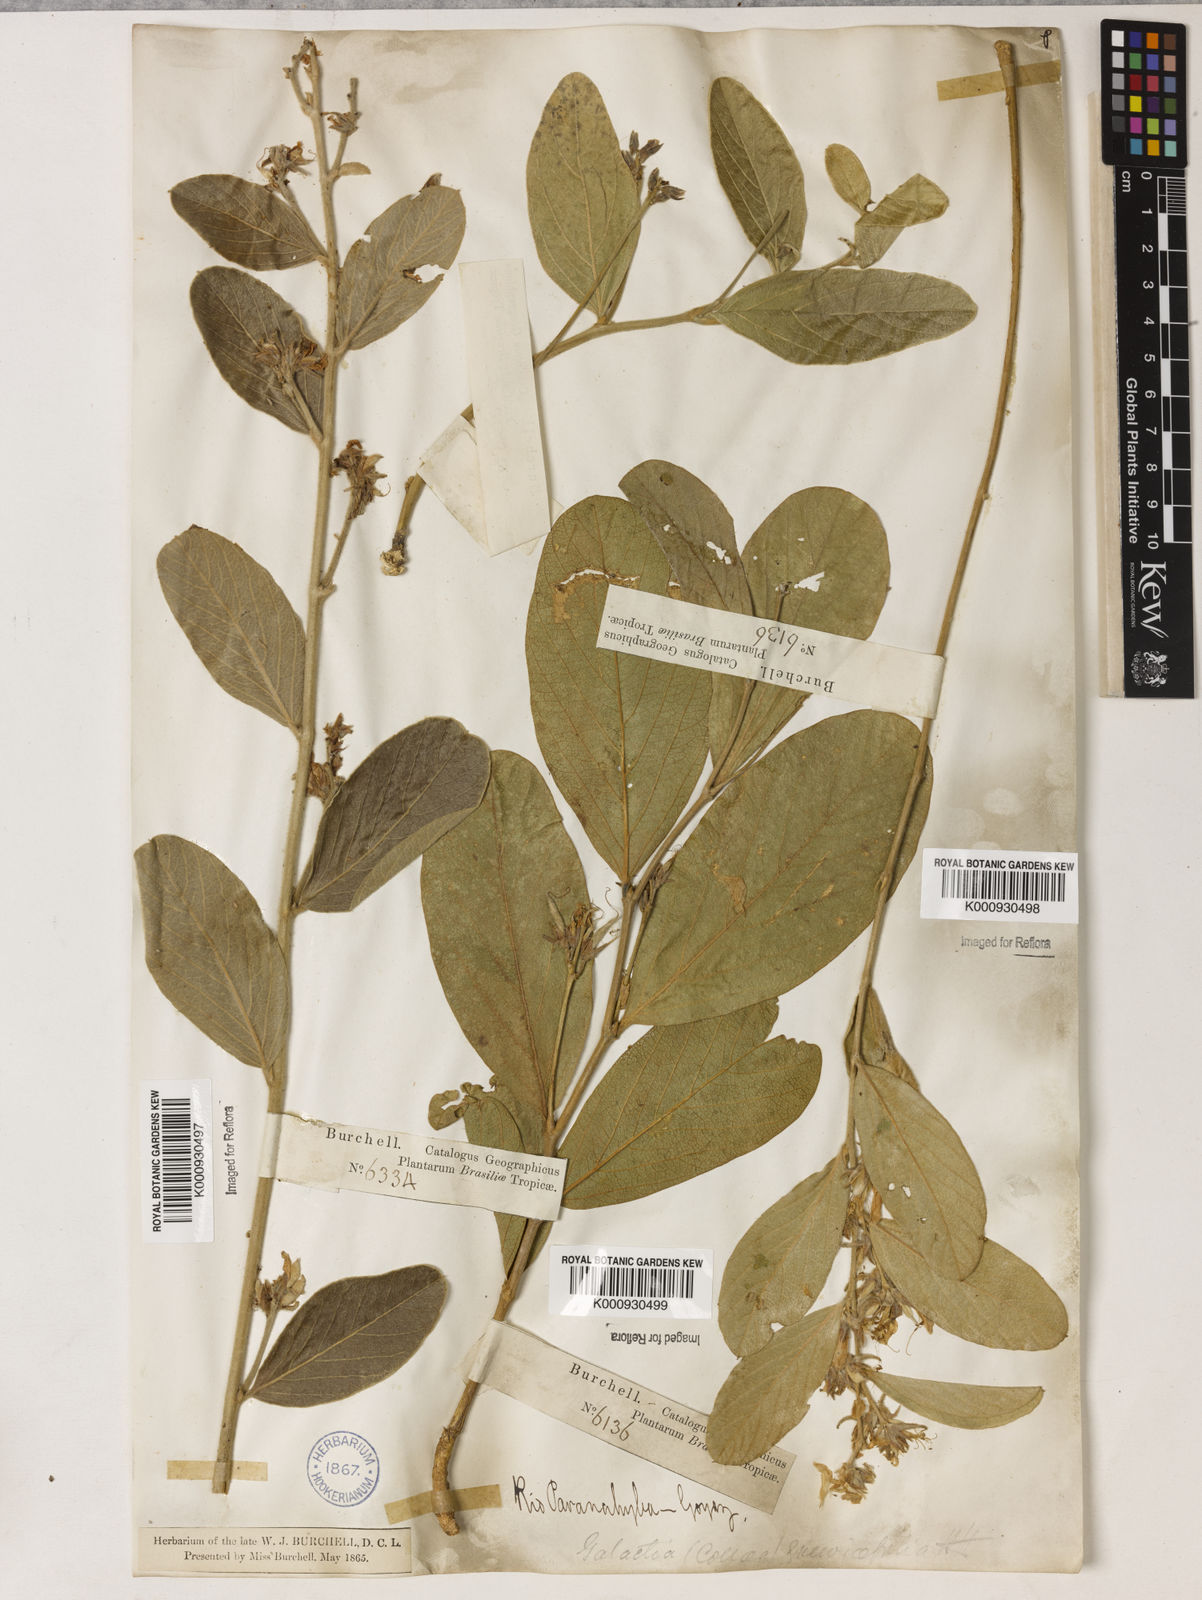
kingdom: Plantae
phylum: Tracheophyta
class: Magnoliopsida
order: Fabales
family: Fabaceae
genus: Galactia
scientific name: Galactia
